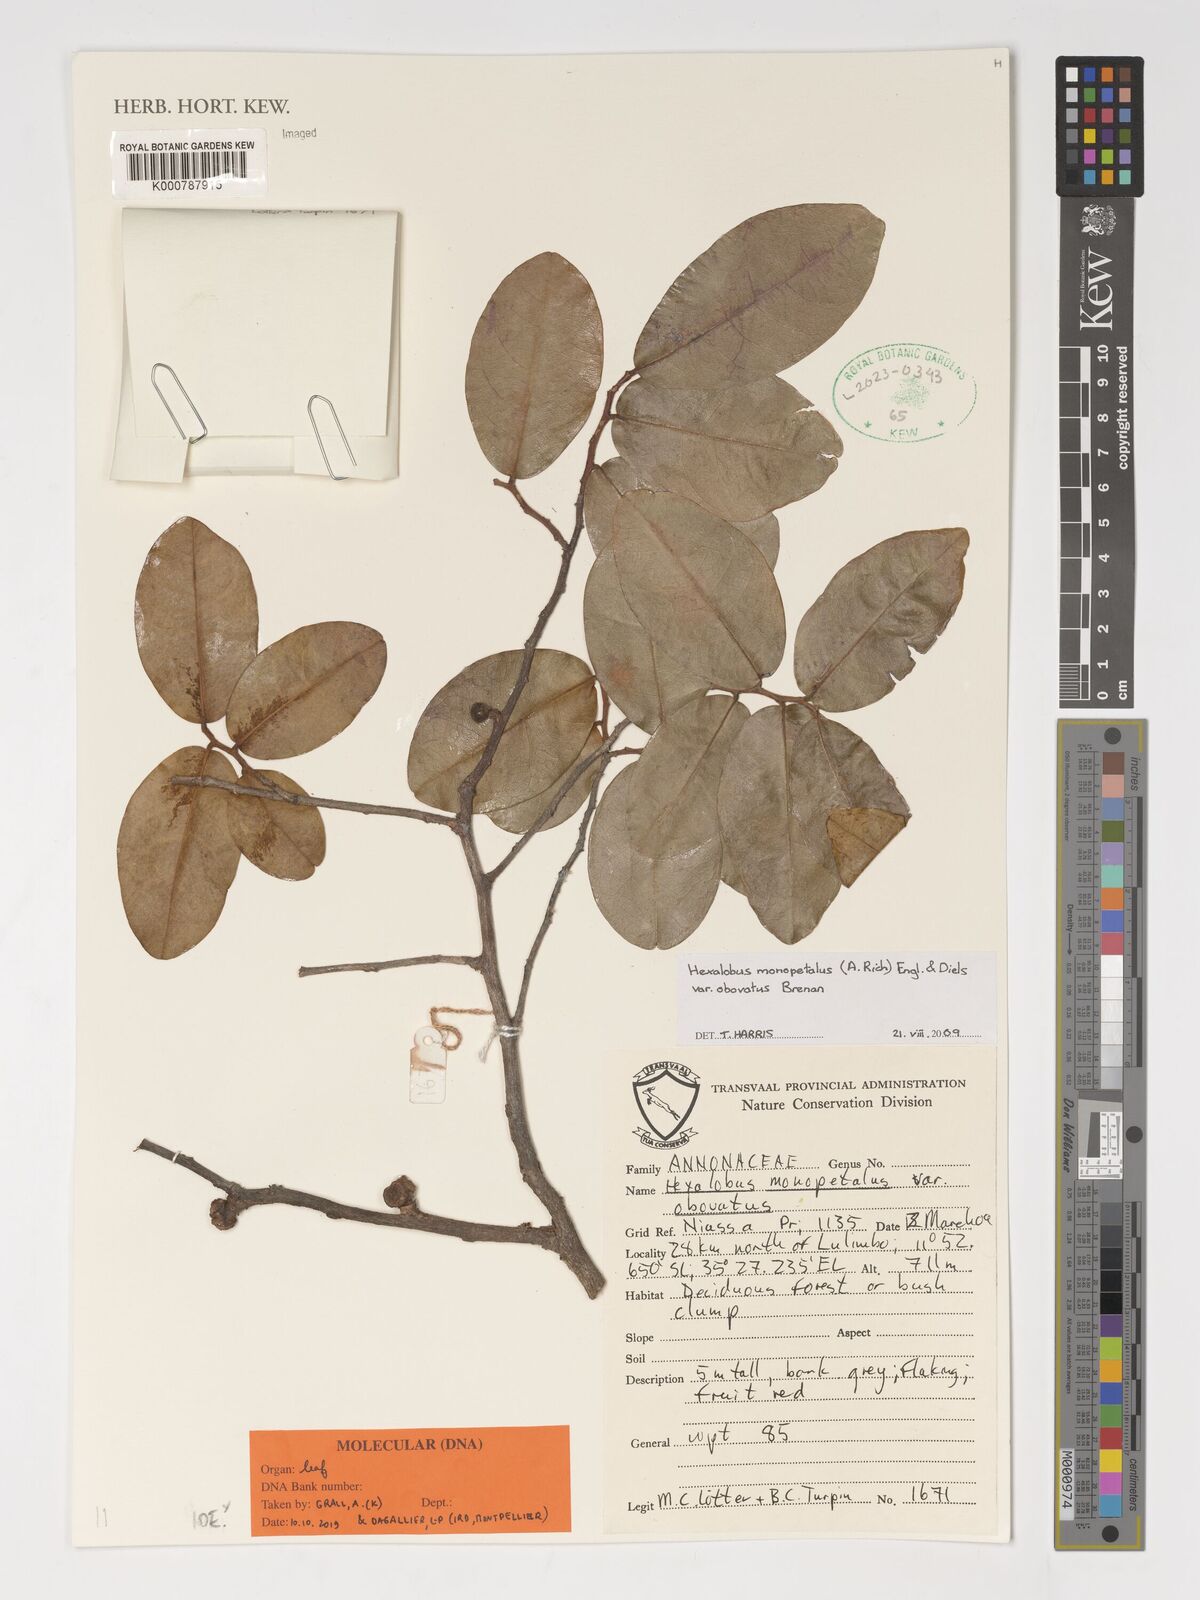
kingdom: Plantae
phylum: Tracheophyta
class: Magnoliopsida
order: Magnoliales
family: Annonaceae
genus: Hexalobus
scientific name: Hexalobus monopetalus
